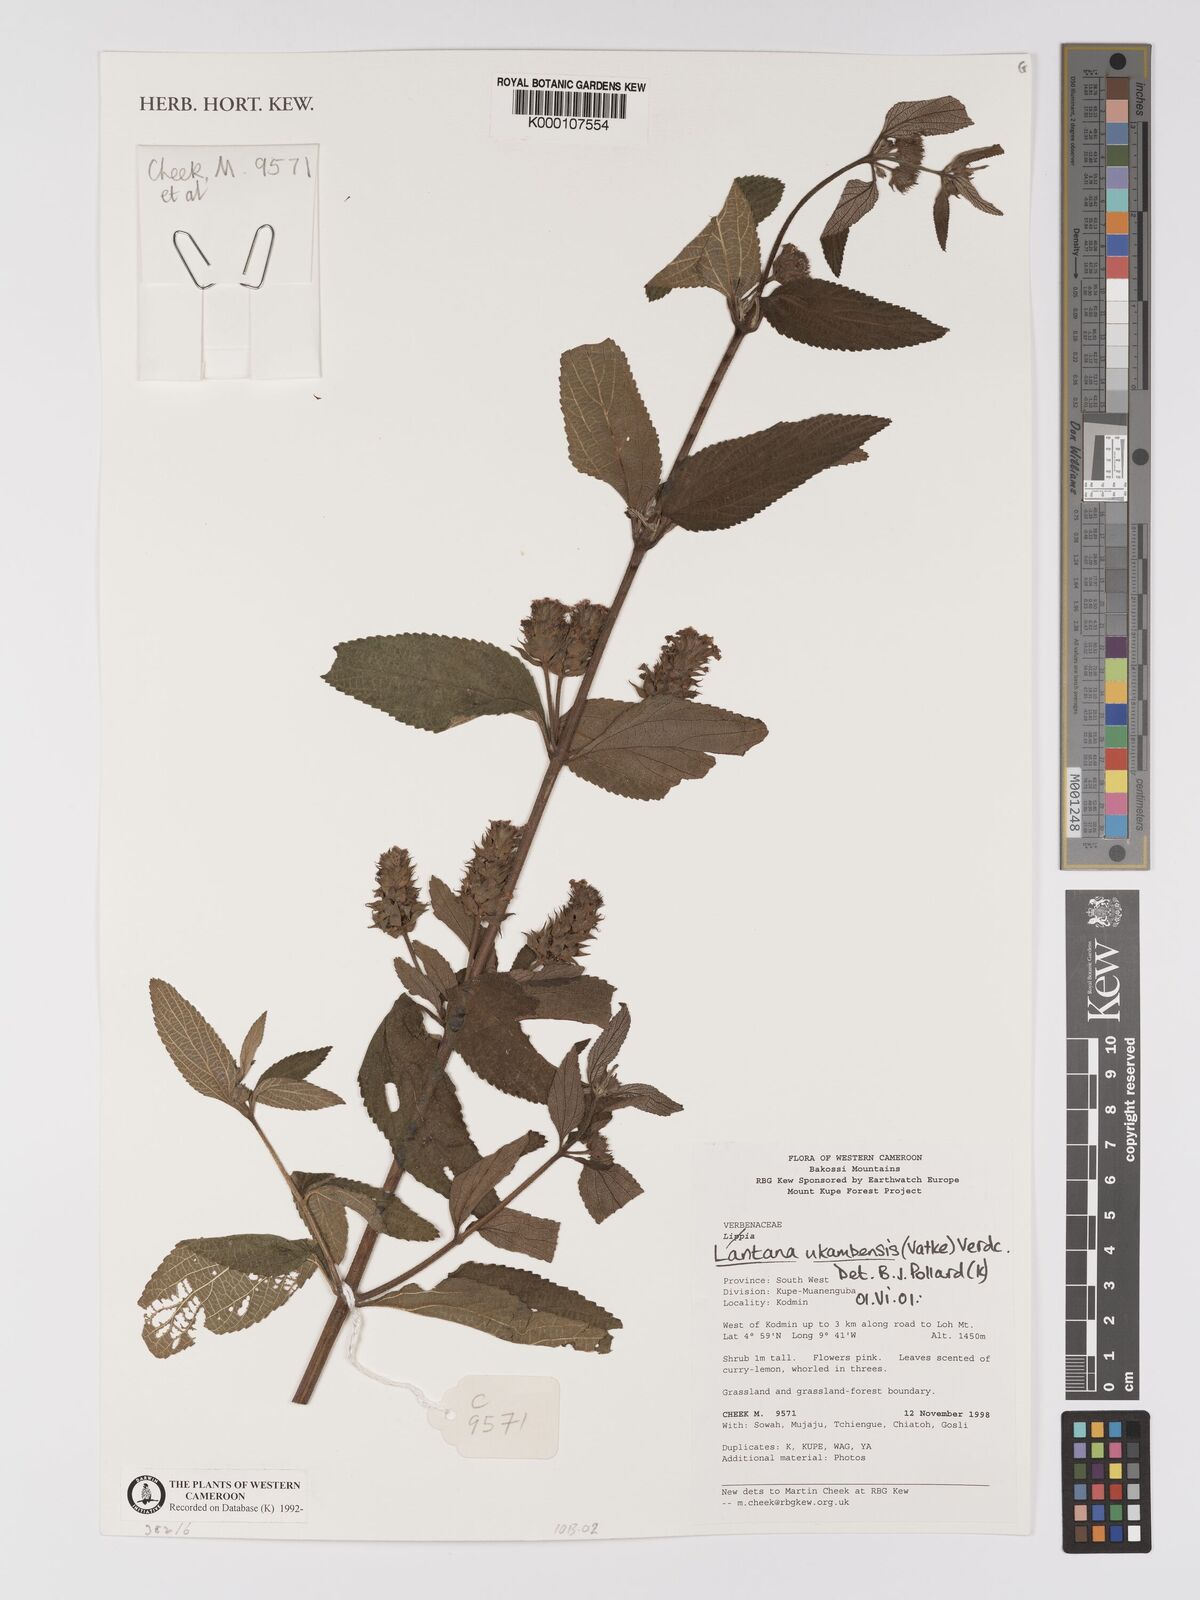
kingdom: Plantae
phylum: Tracheophyta
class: Magnoliopsida
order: Lamiales
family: Verbenaceae
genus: Lantana
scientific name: Lantana ukambensis
